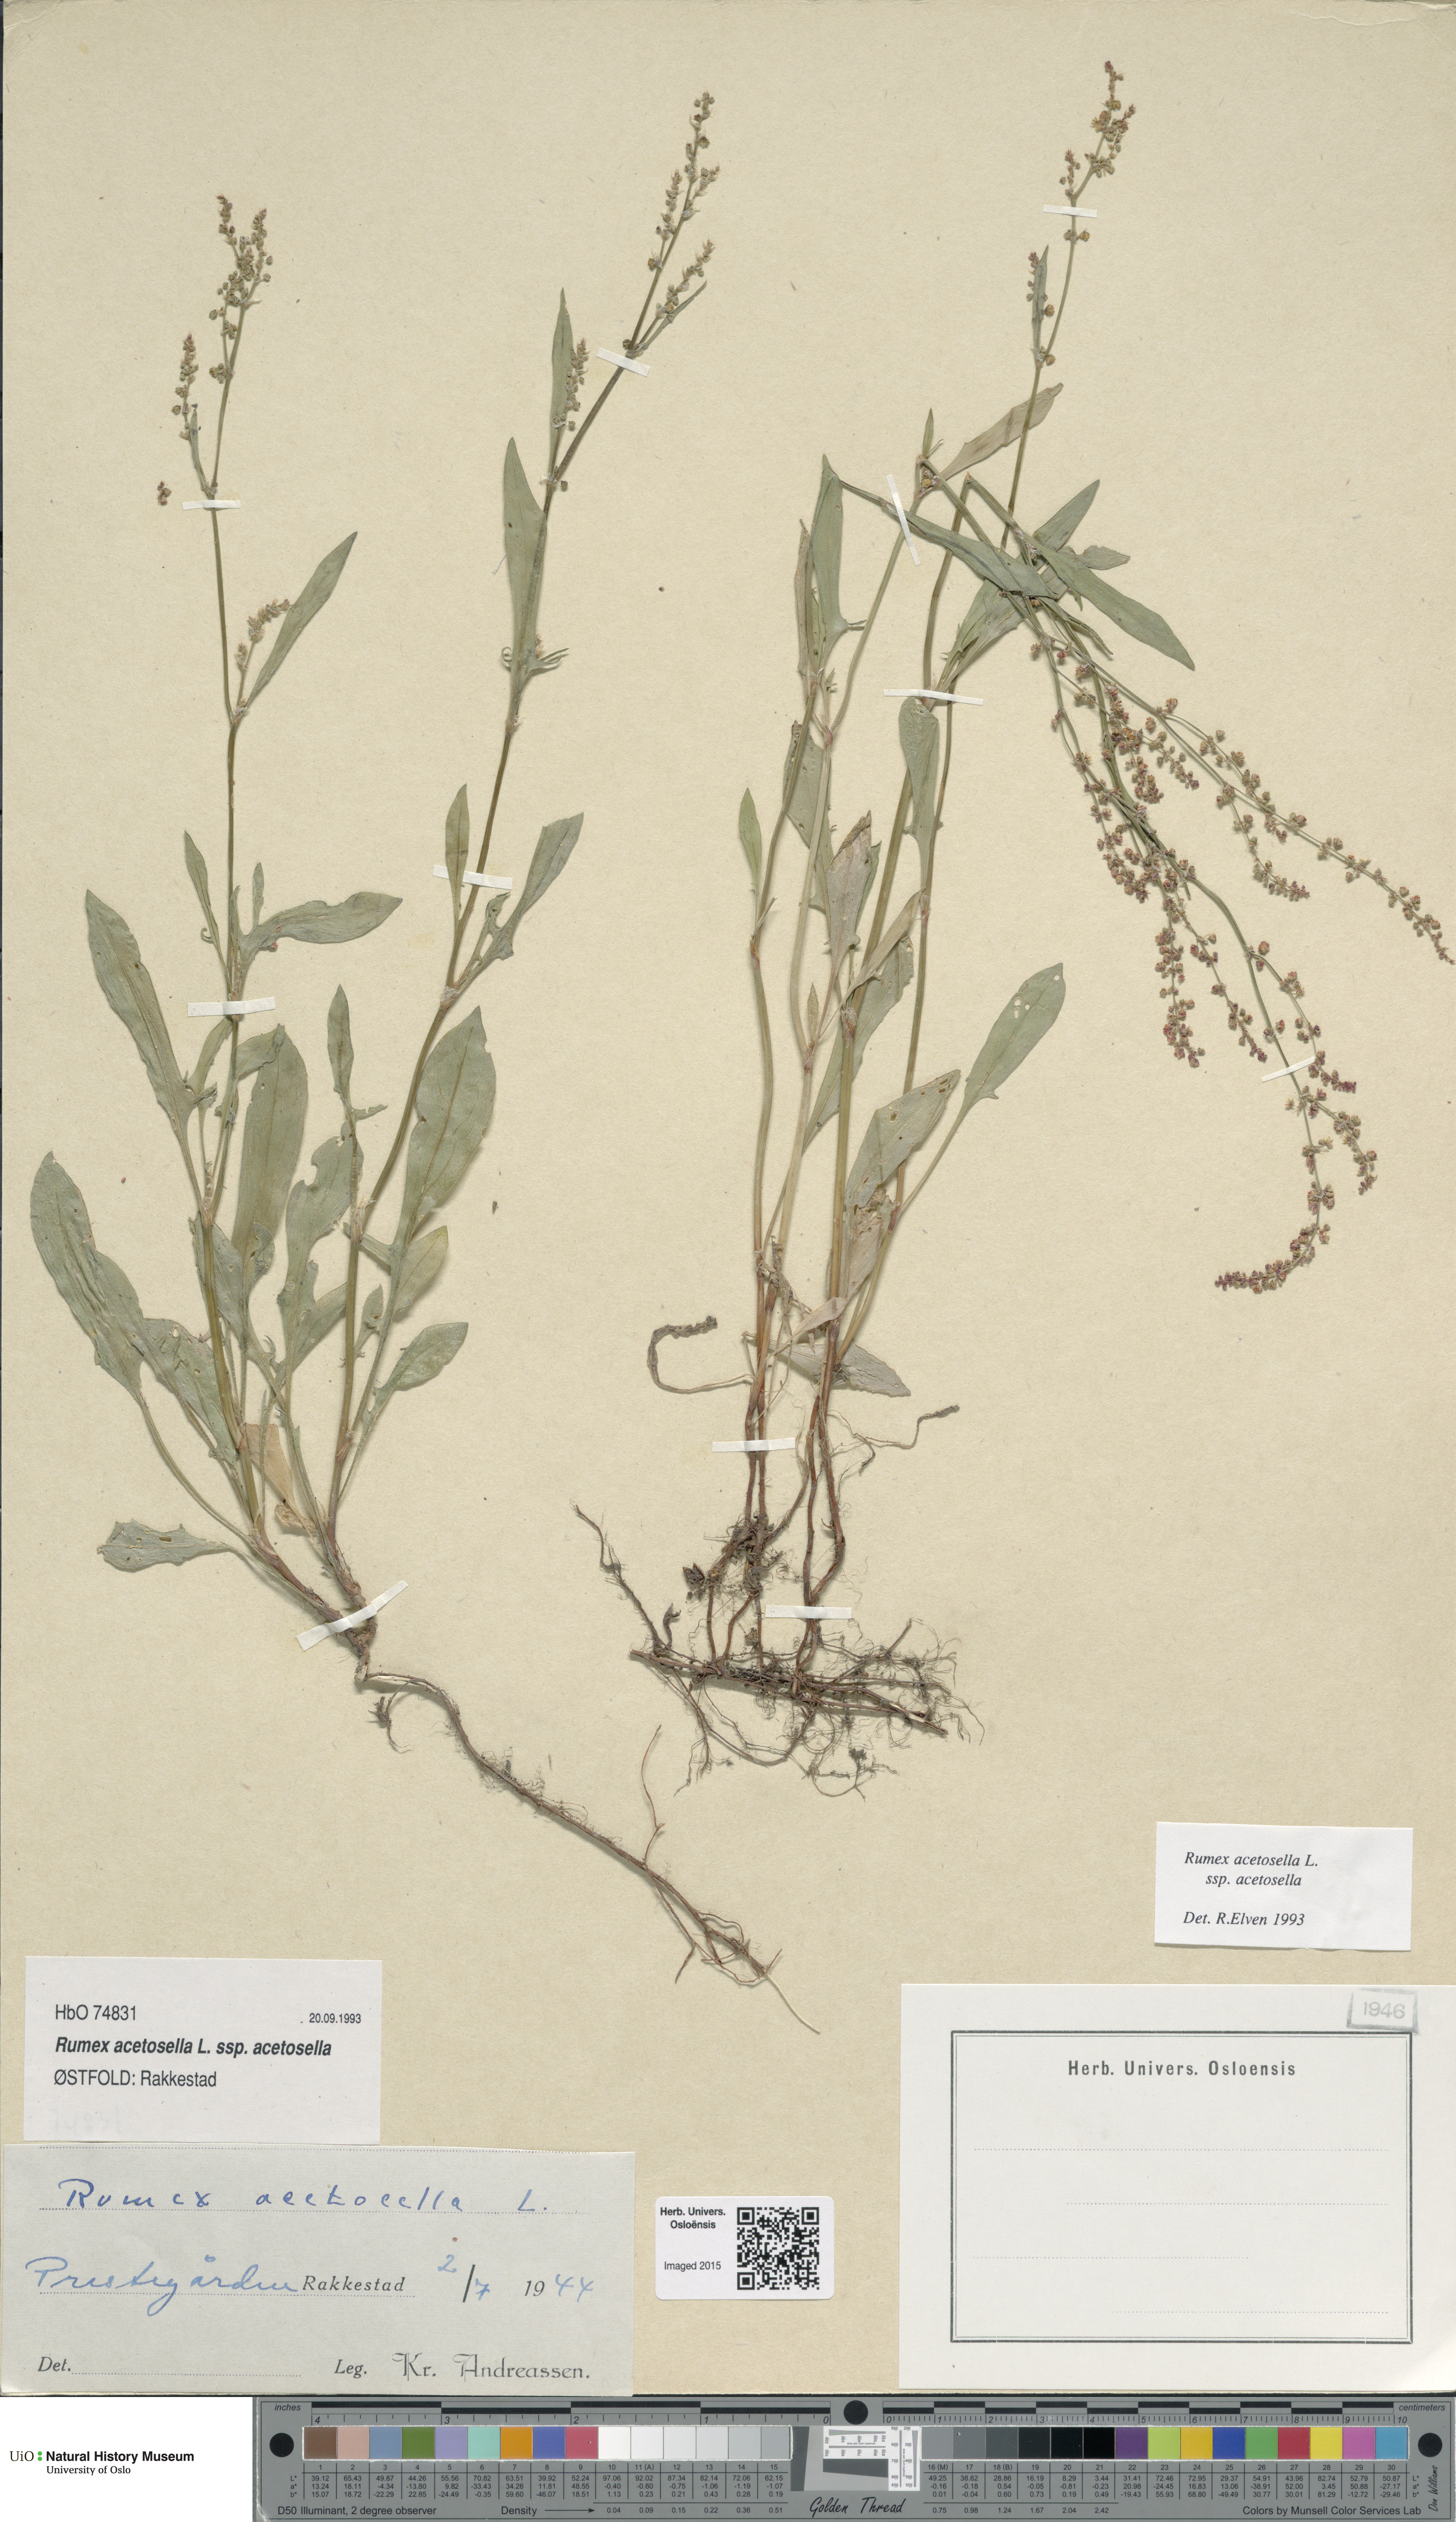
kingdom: Plantae
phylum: Tracheophyta
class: Magnoliopsida
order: Caryophyllales
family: Polygonaceae
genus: Rumex
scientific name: Rumex acetosella
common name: Common sheep sorrel
